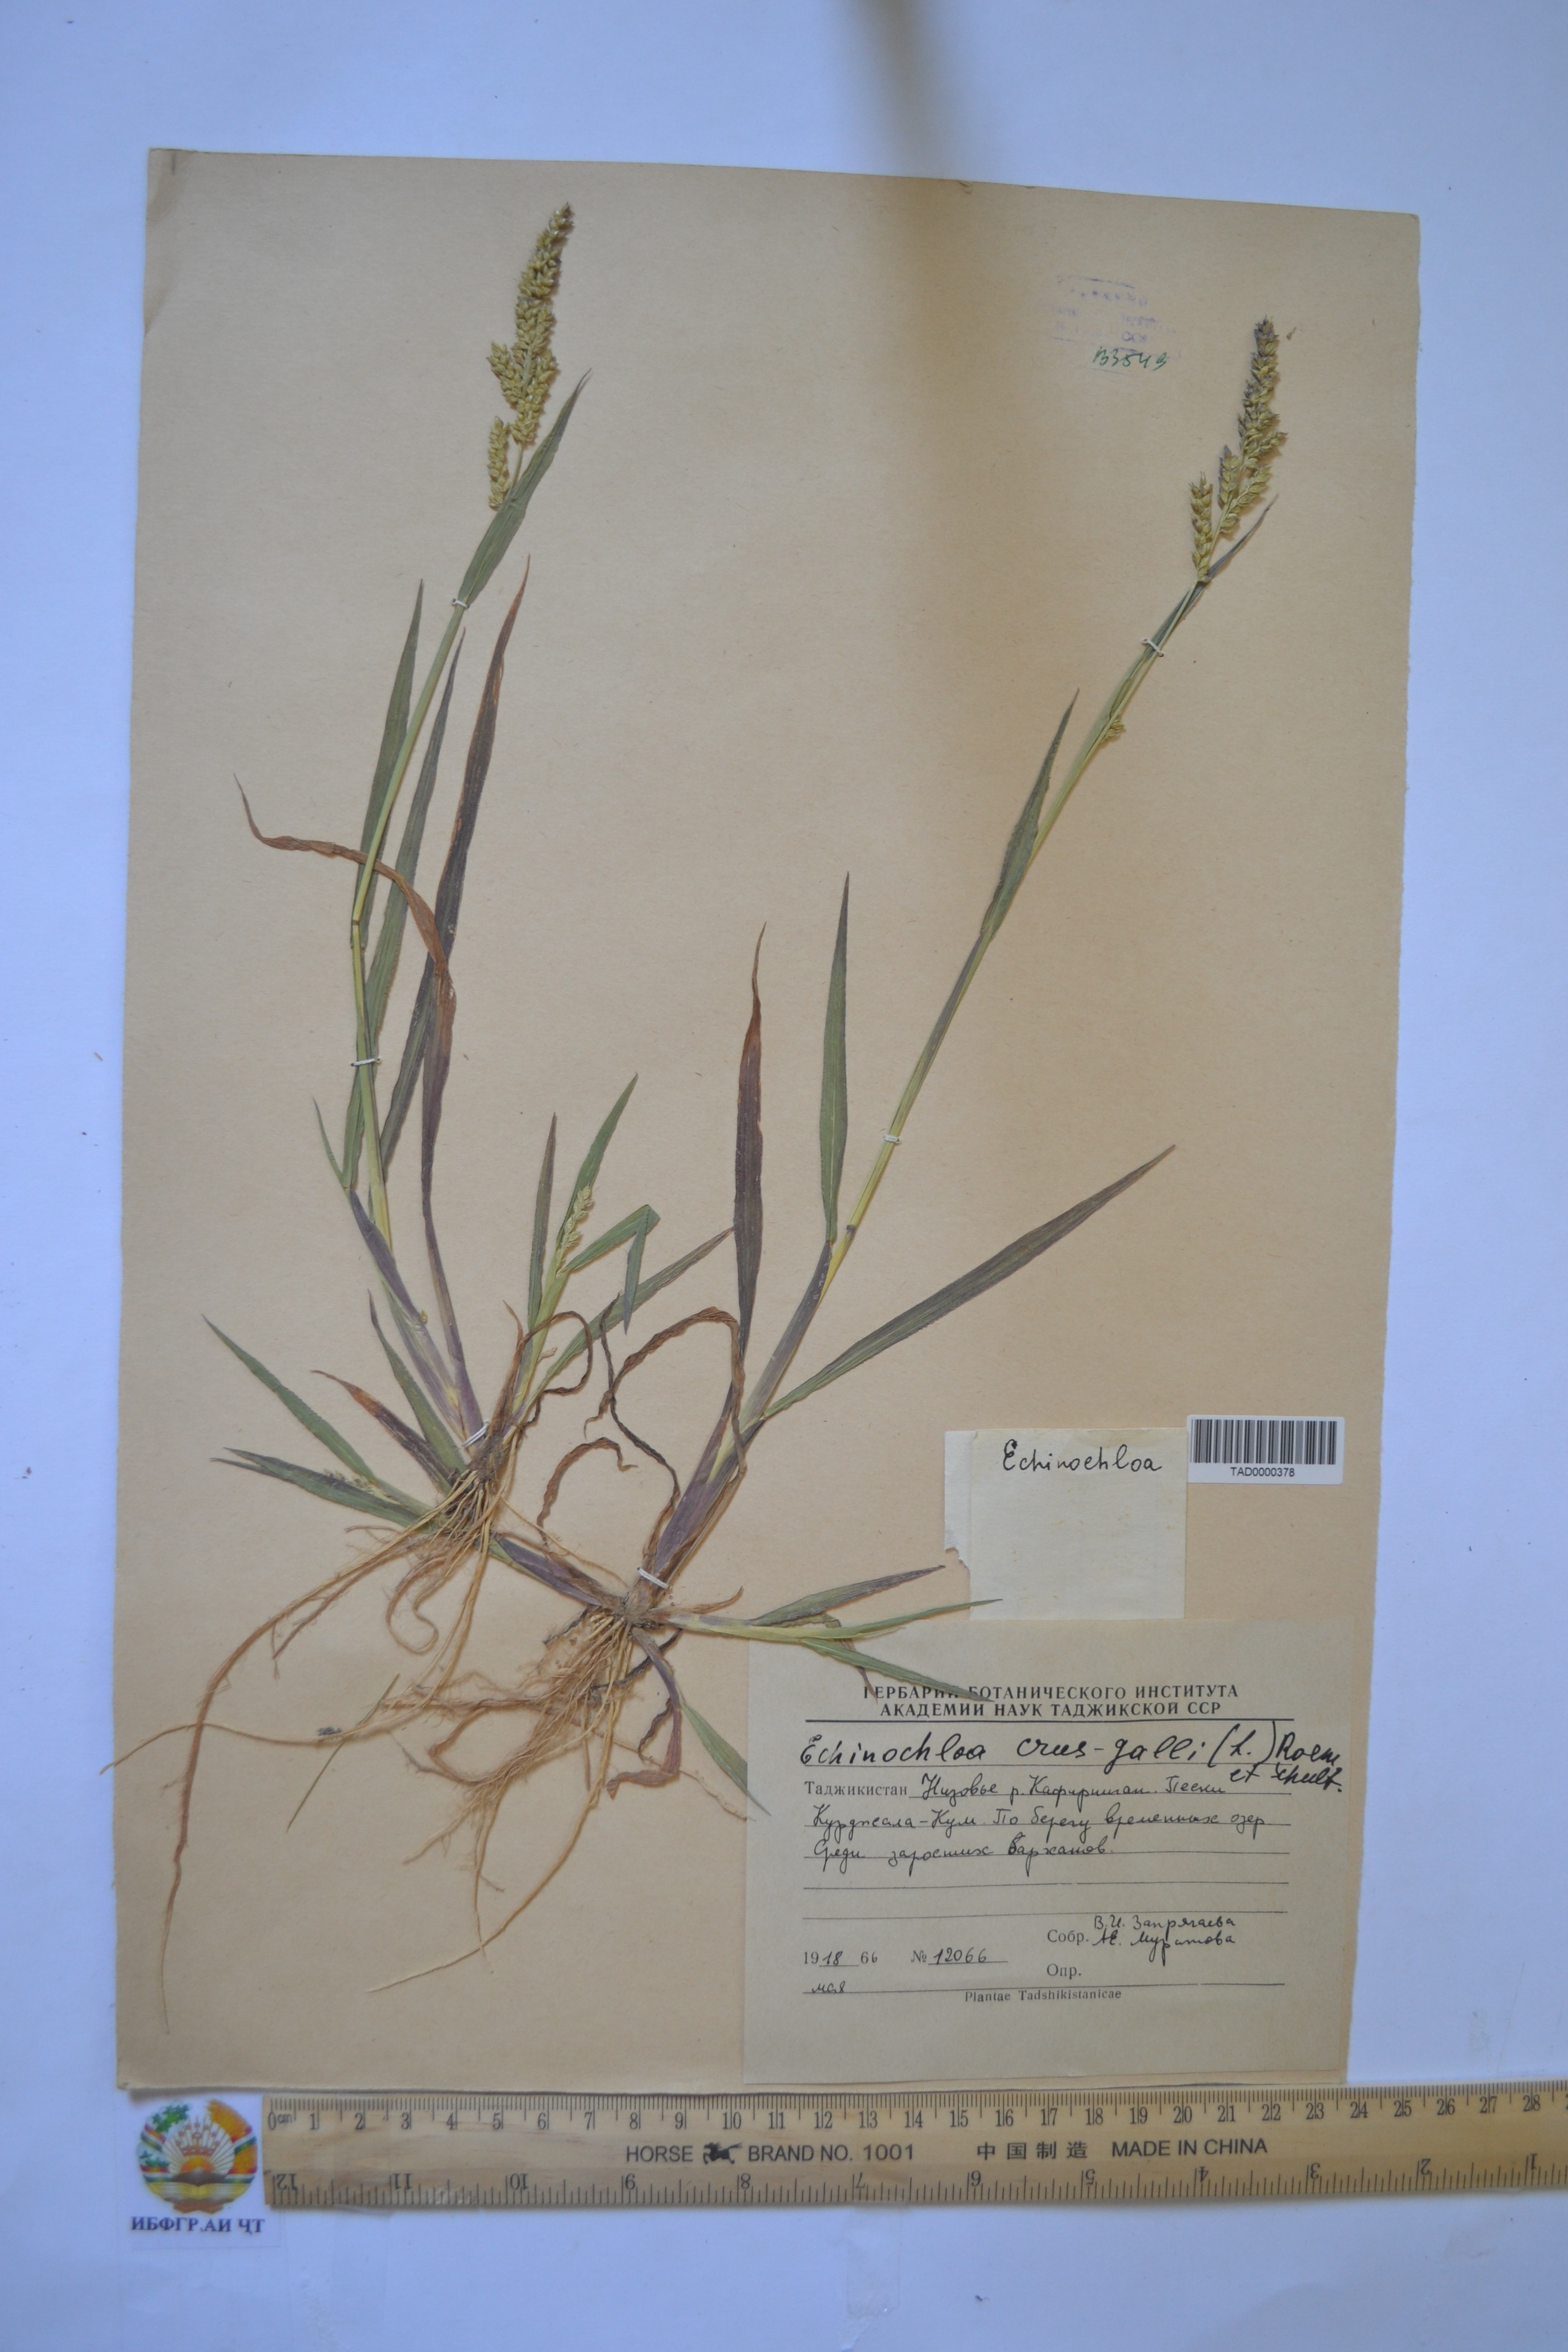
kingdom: Plantae
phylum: Tracheophyta
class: Liliopsida
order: Poales
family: Poaceae
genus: Echinochloa
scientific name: Echinochloa crus-galli
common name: Cockspur
